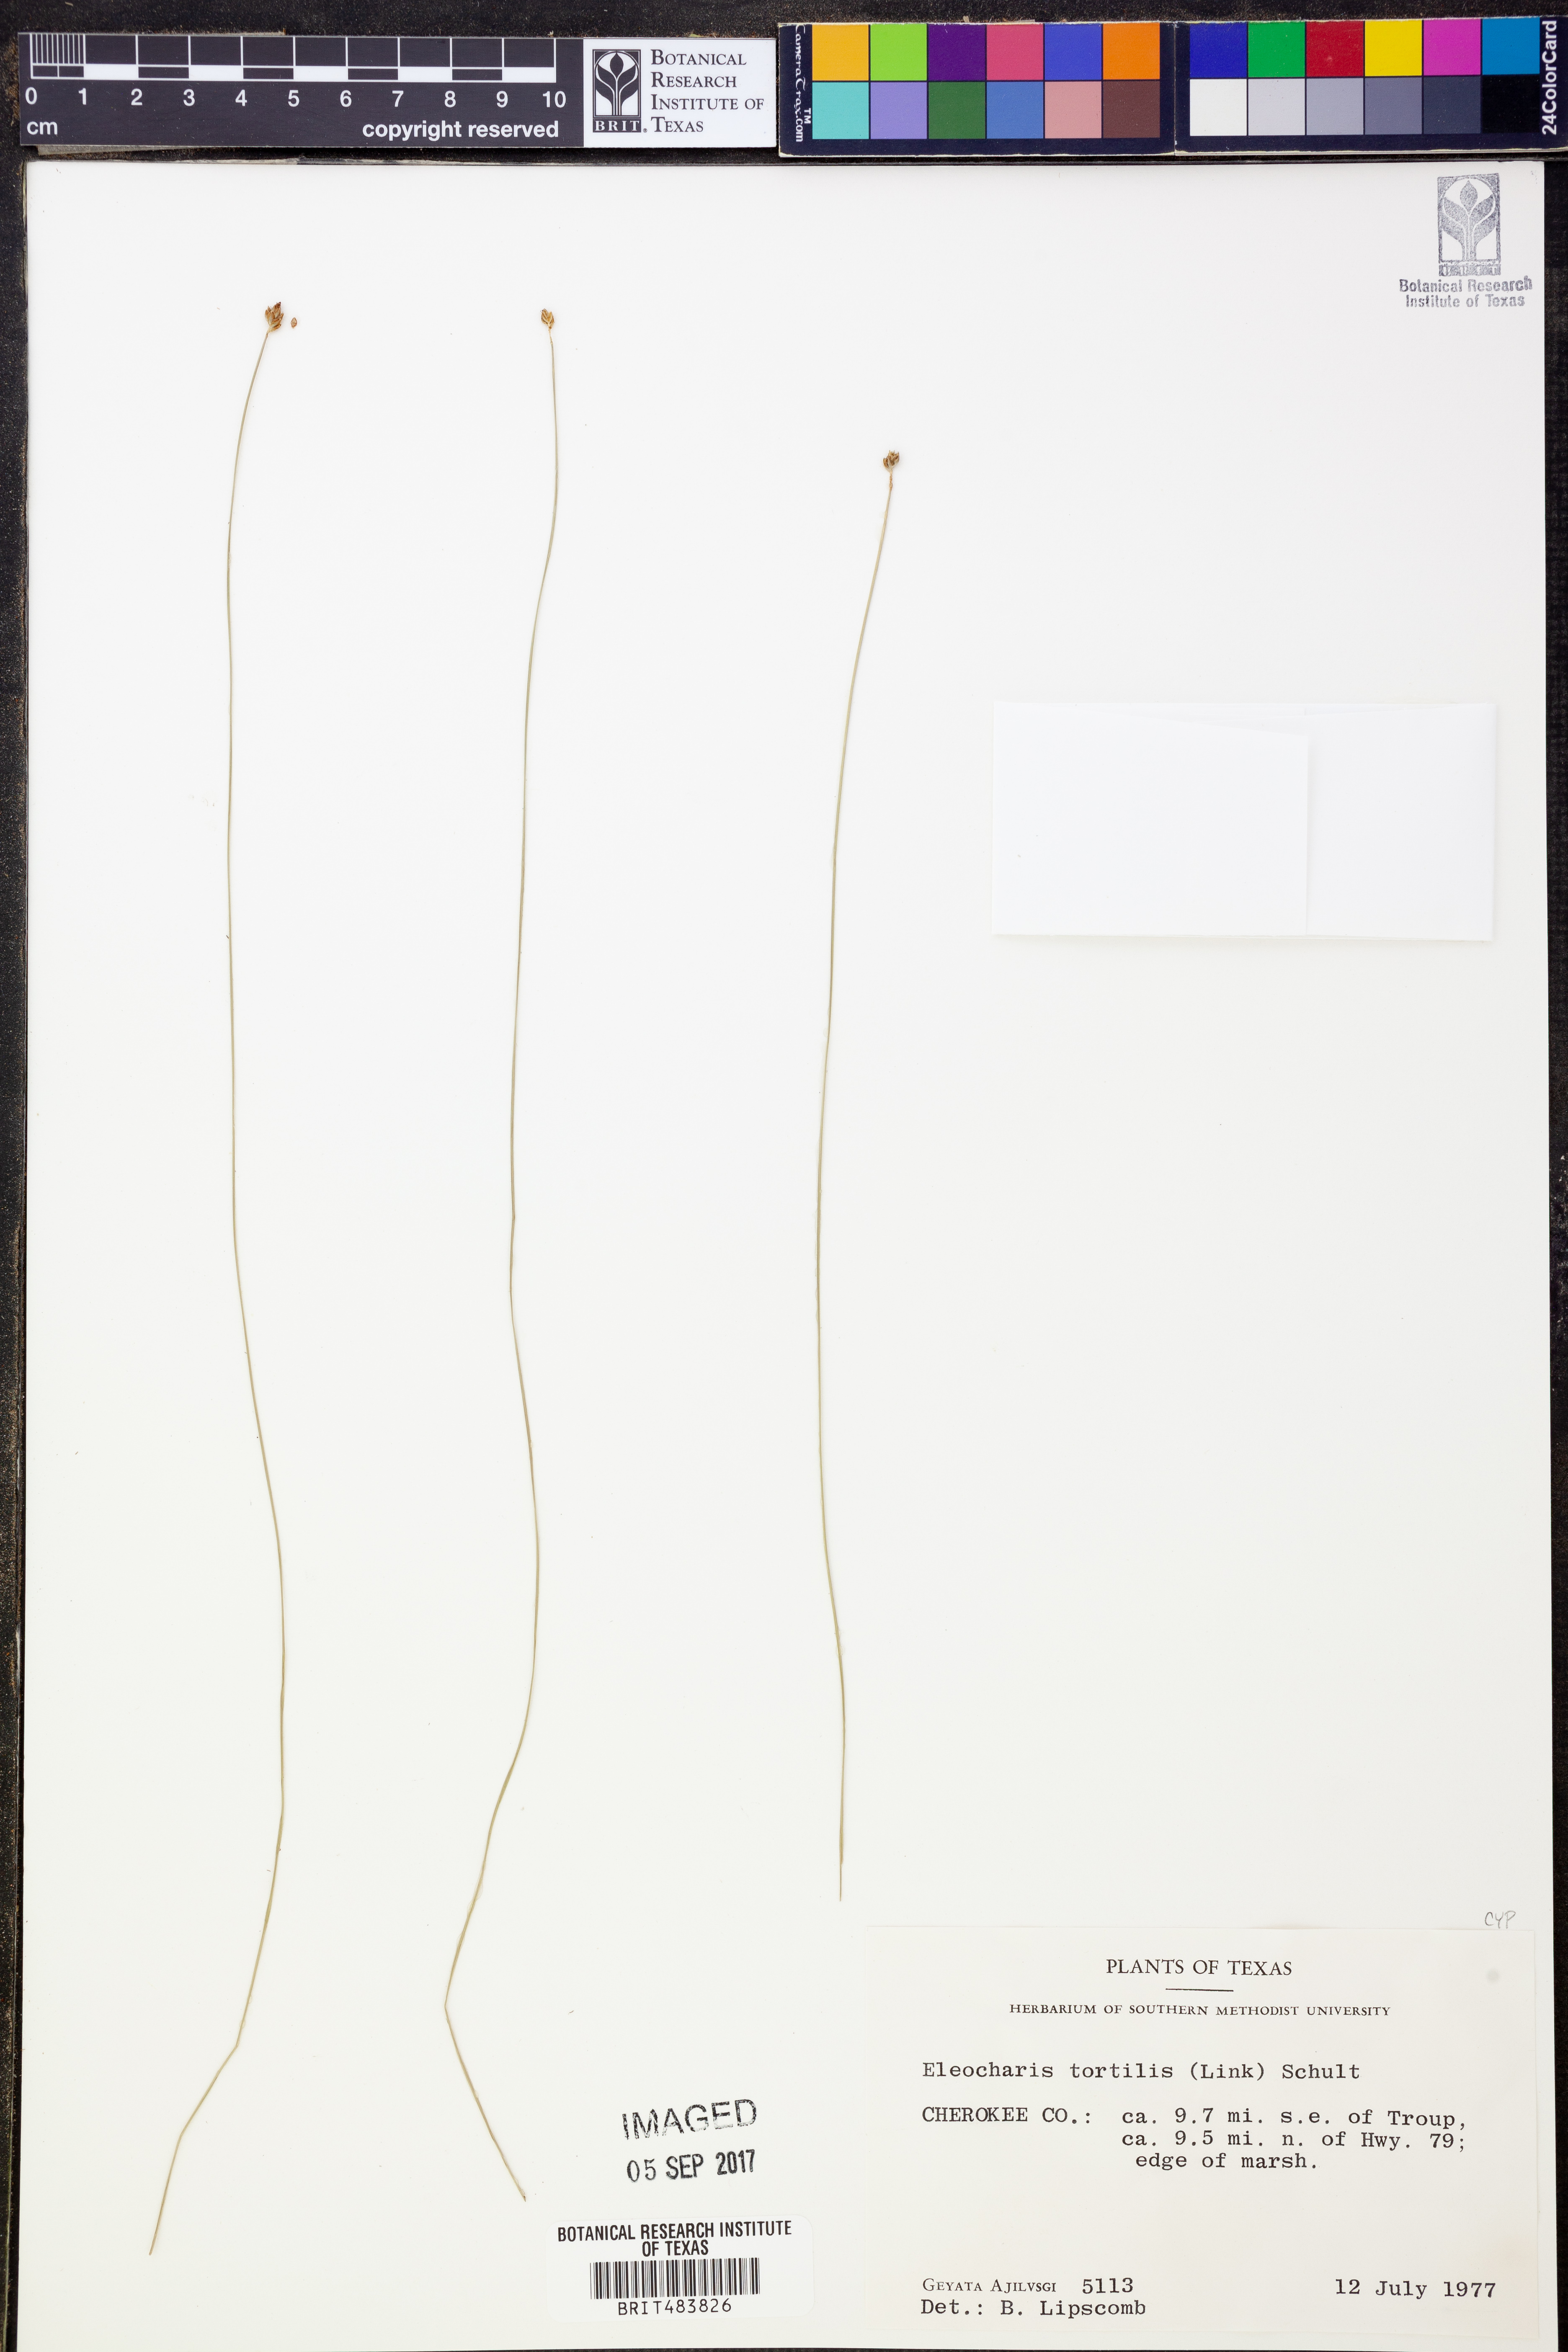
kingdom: Plantae
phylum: Tracheophyta
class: Liliopsida
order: Poales
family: Cyperaceae
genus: Eleocharis
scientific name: Eleocharis tortilis
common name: Twisted spike sedge
